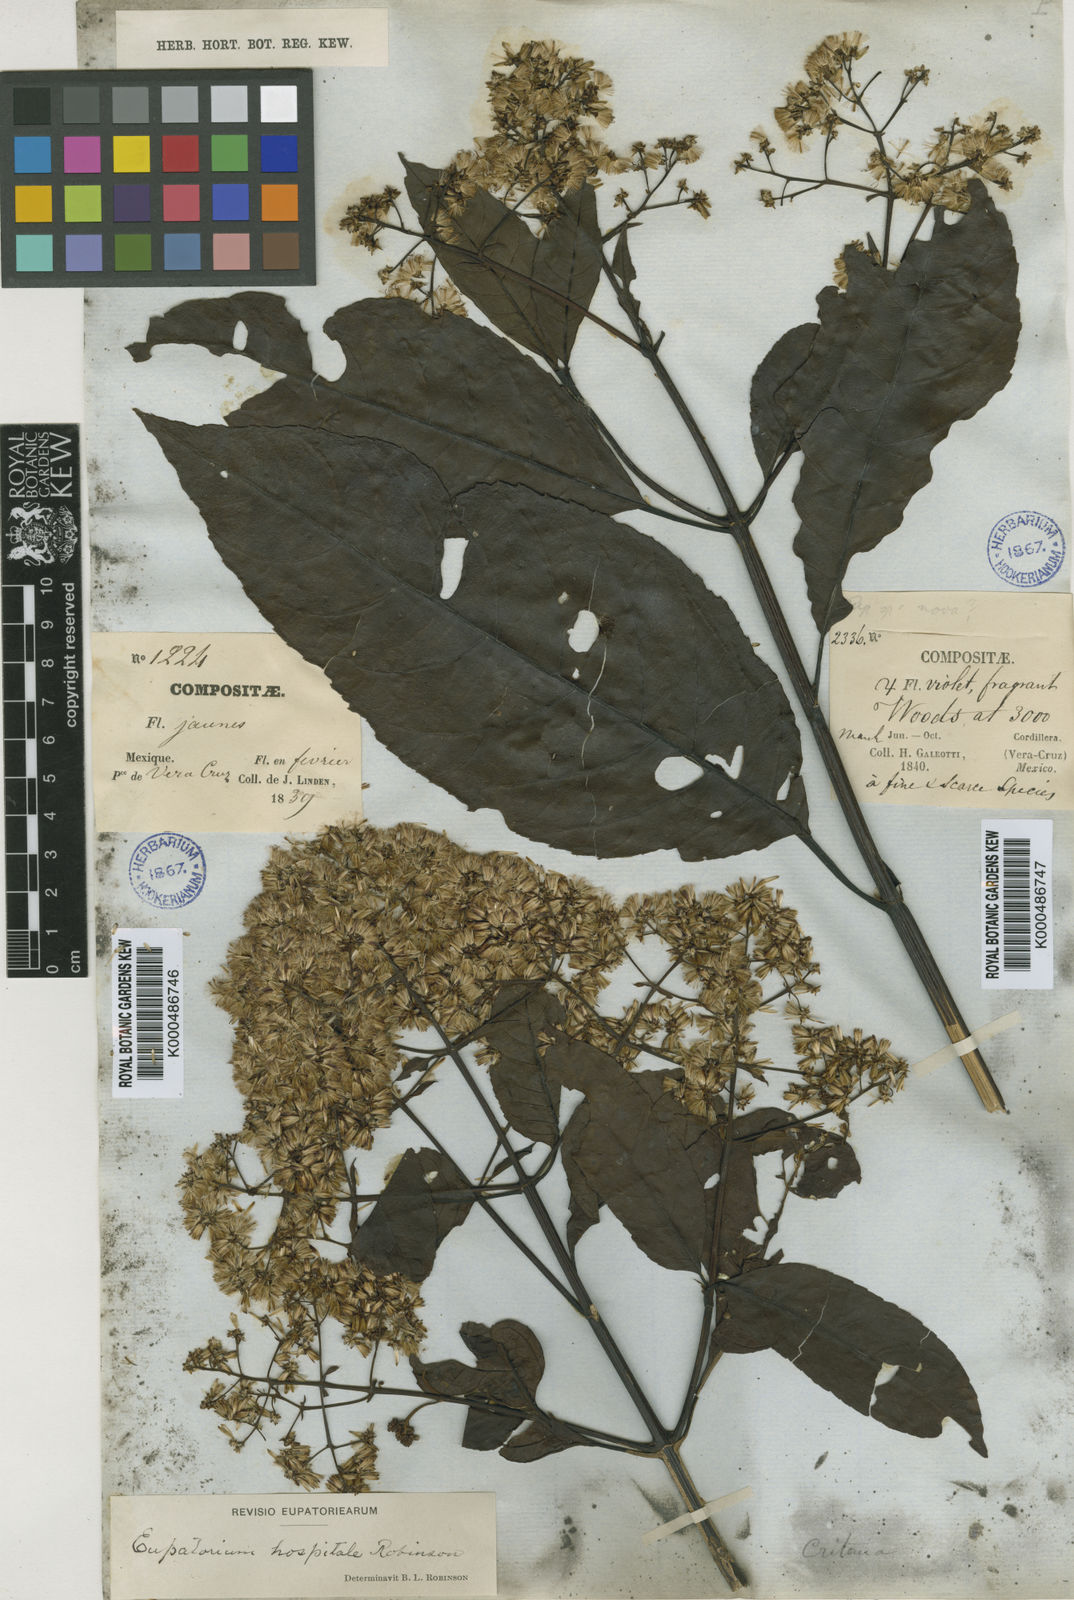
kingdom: Plantae
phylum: Tracheophyta
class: Magnoliopsida
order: Asterales
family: Asteraceae
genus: Critonia
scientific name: Critonia hospitalis
